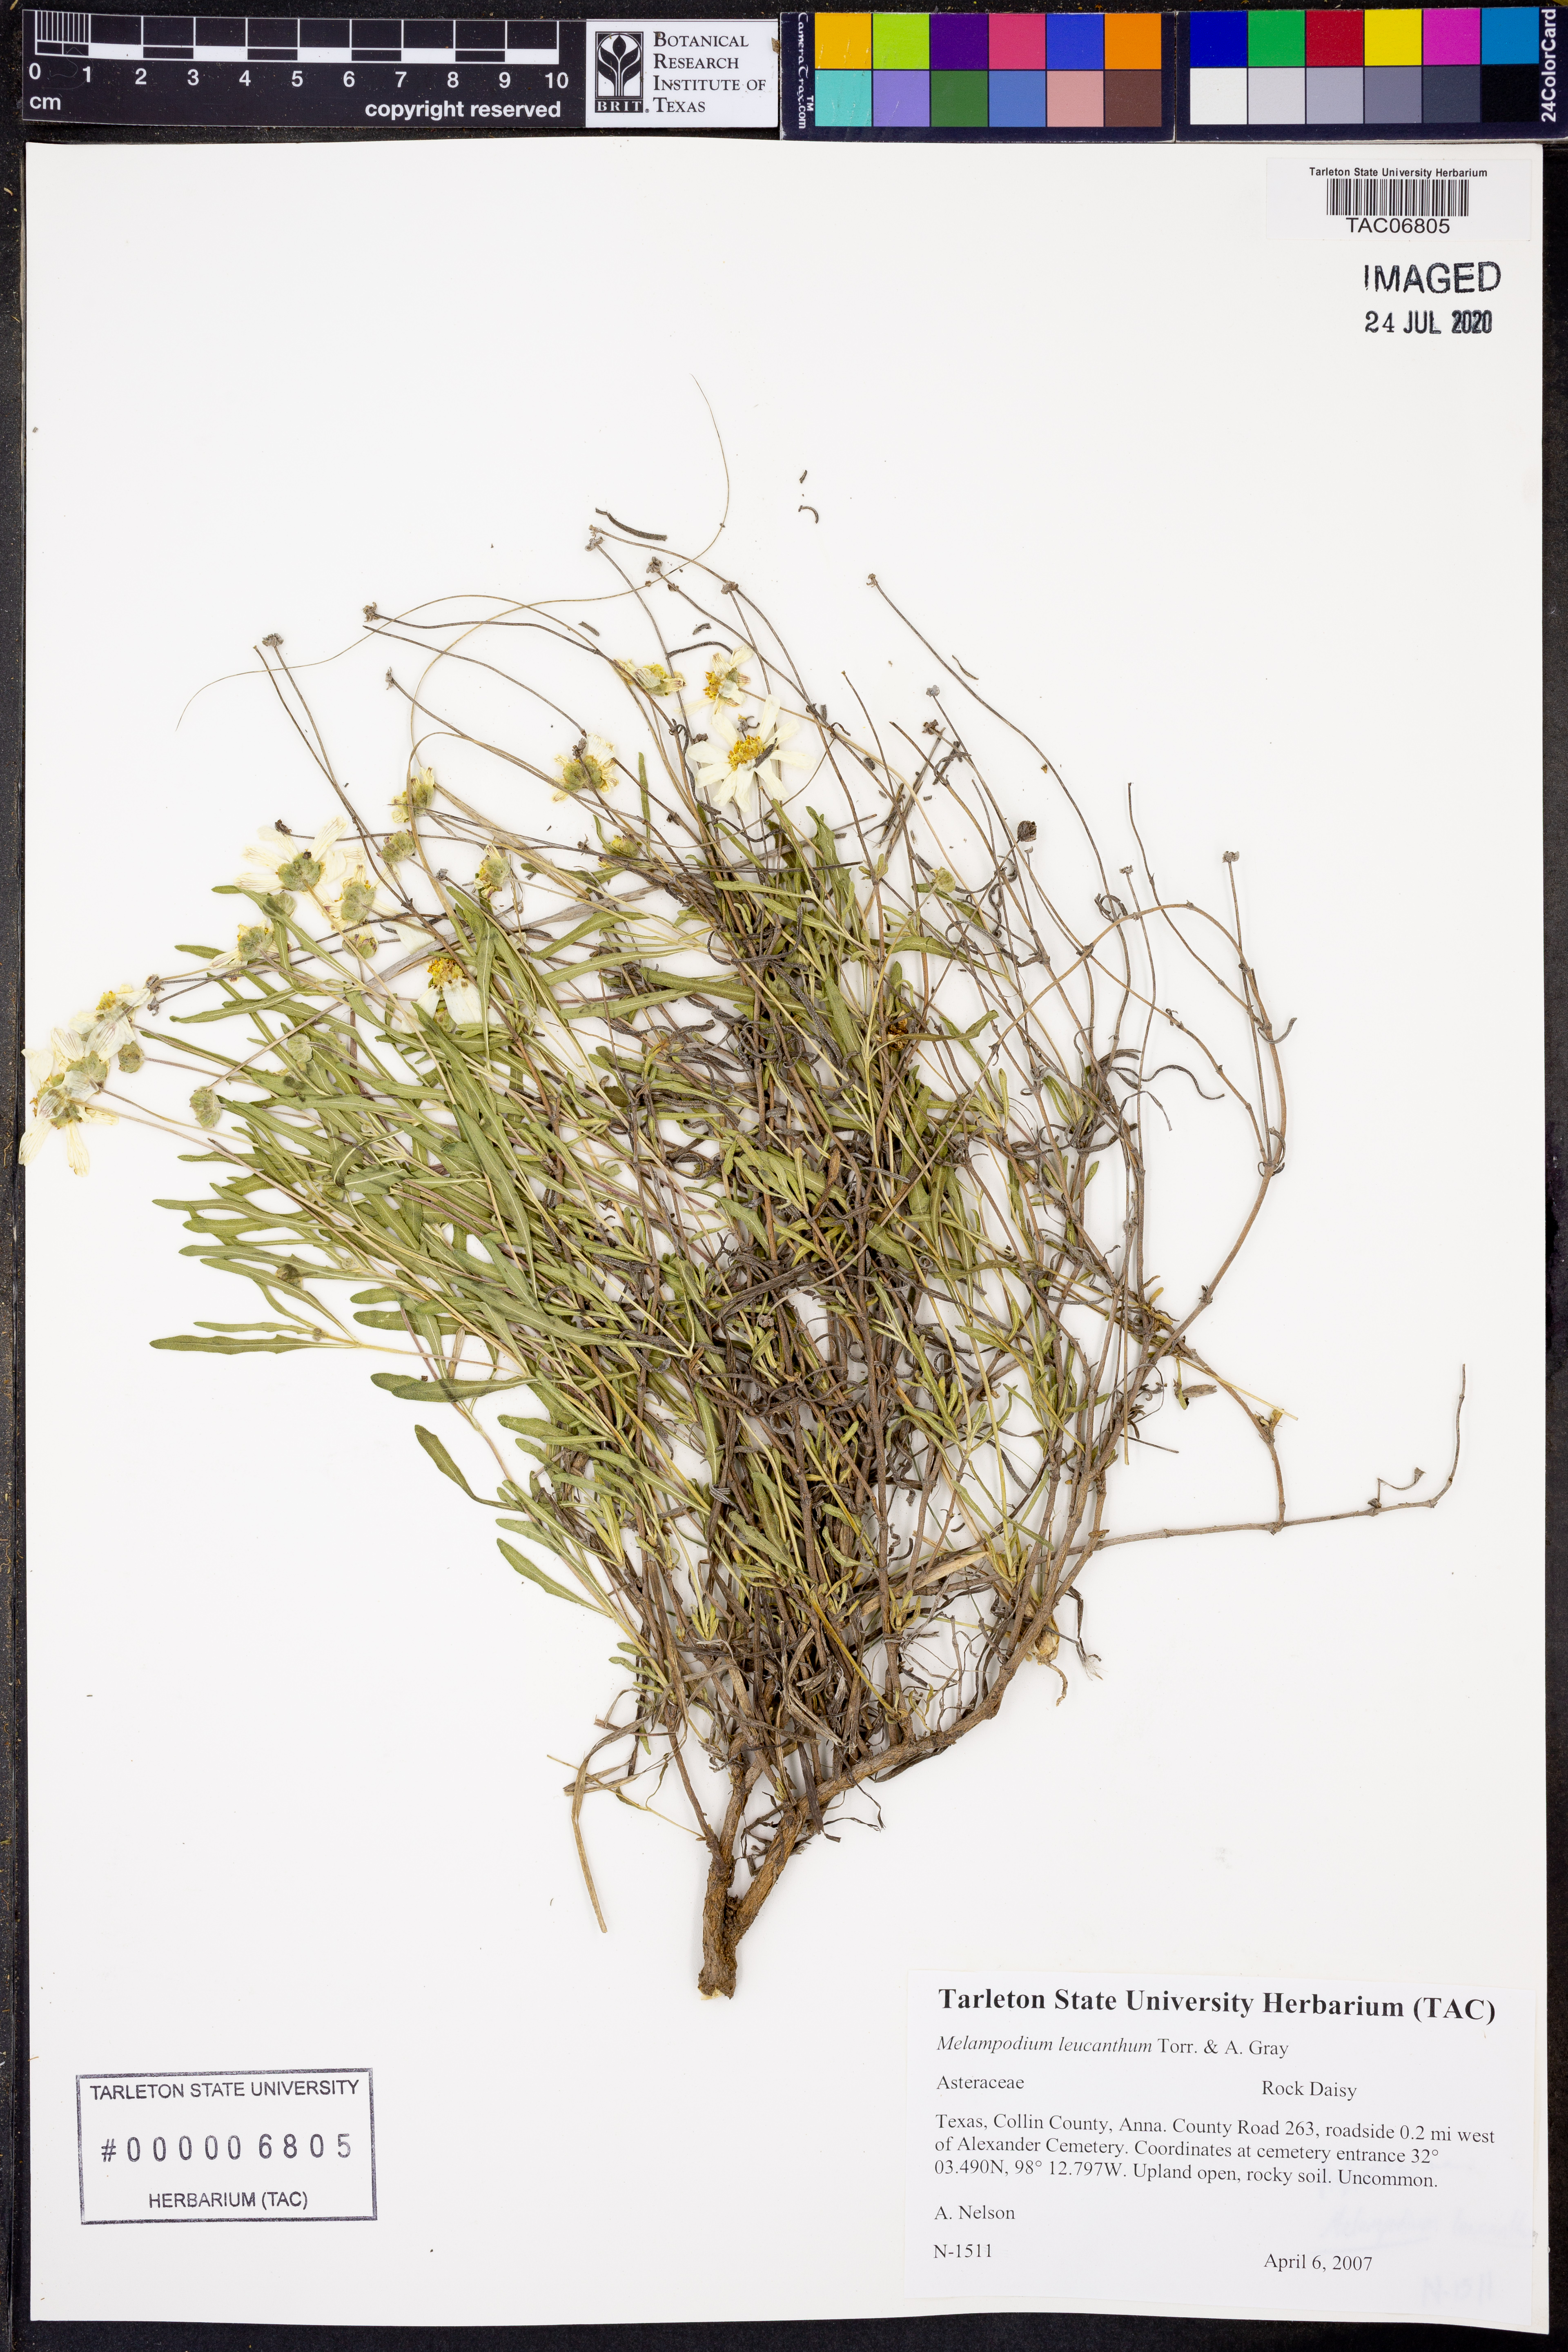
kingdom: Plantae
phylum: Tracheophyta
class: Magnoliopsida
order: Asterales
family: Asteraceae
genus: Melampodium
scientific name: Melampodium leucanthum
